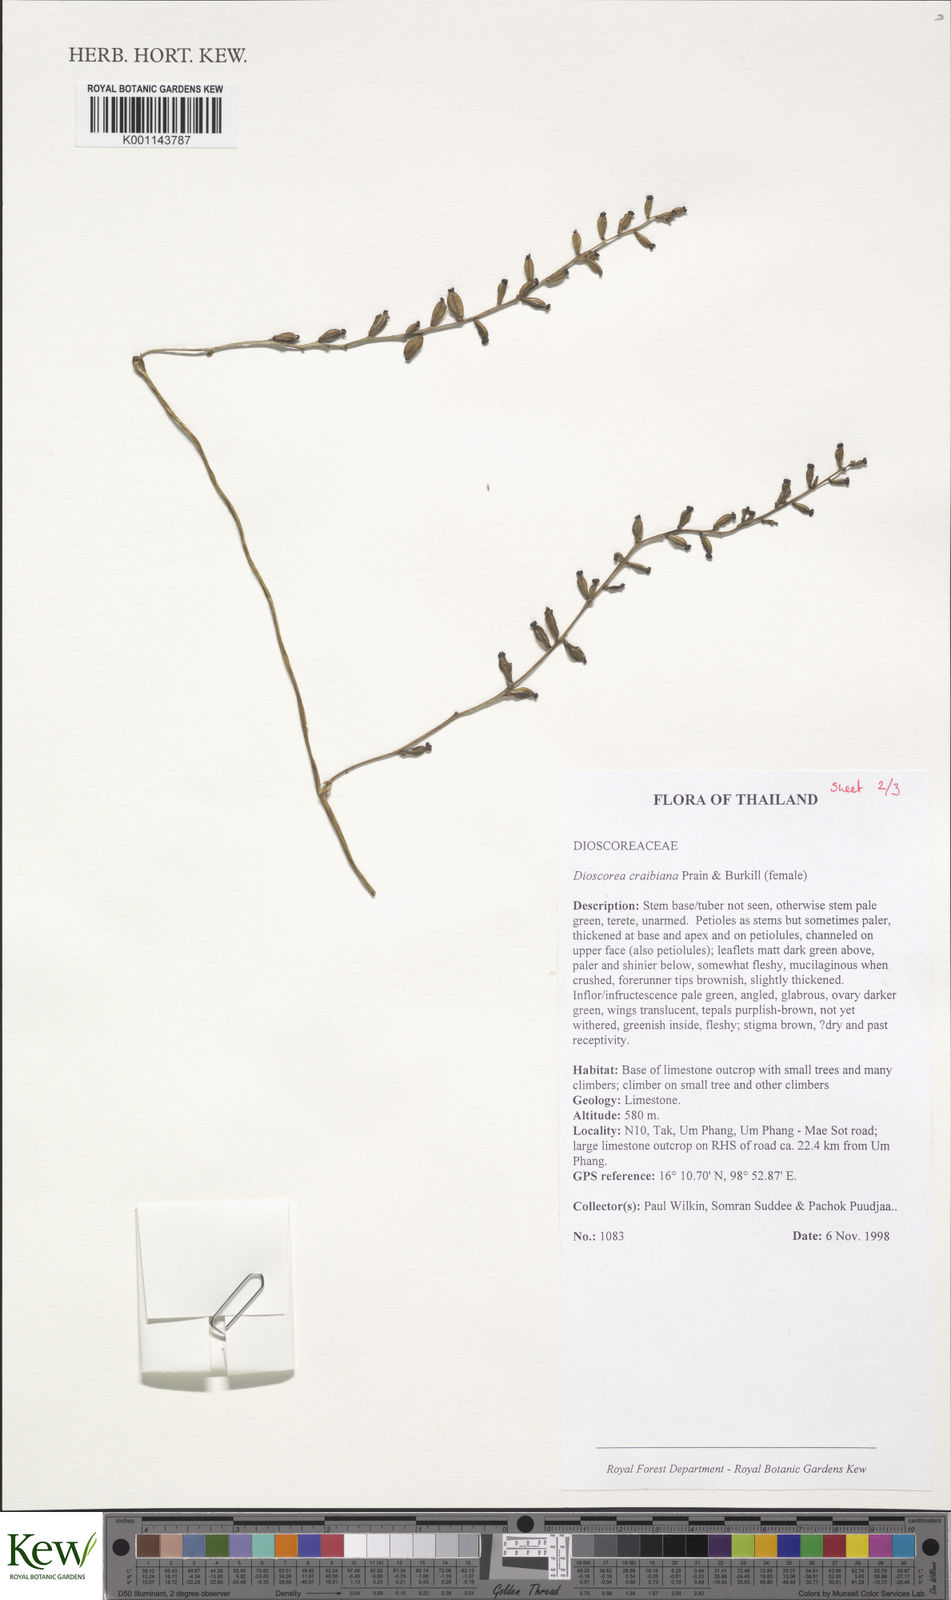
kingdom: Plantae
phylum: Tracheophyta
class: Liliopsida
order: Dioscoreales
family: Dioscoreaceae
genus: Dioscorea
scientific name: Dioscorea craibiana
